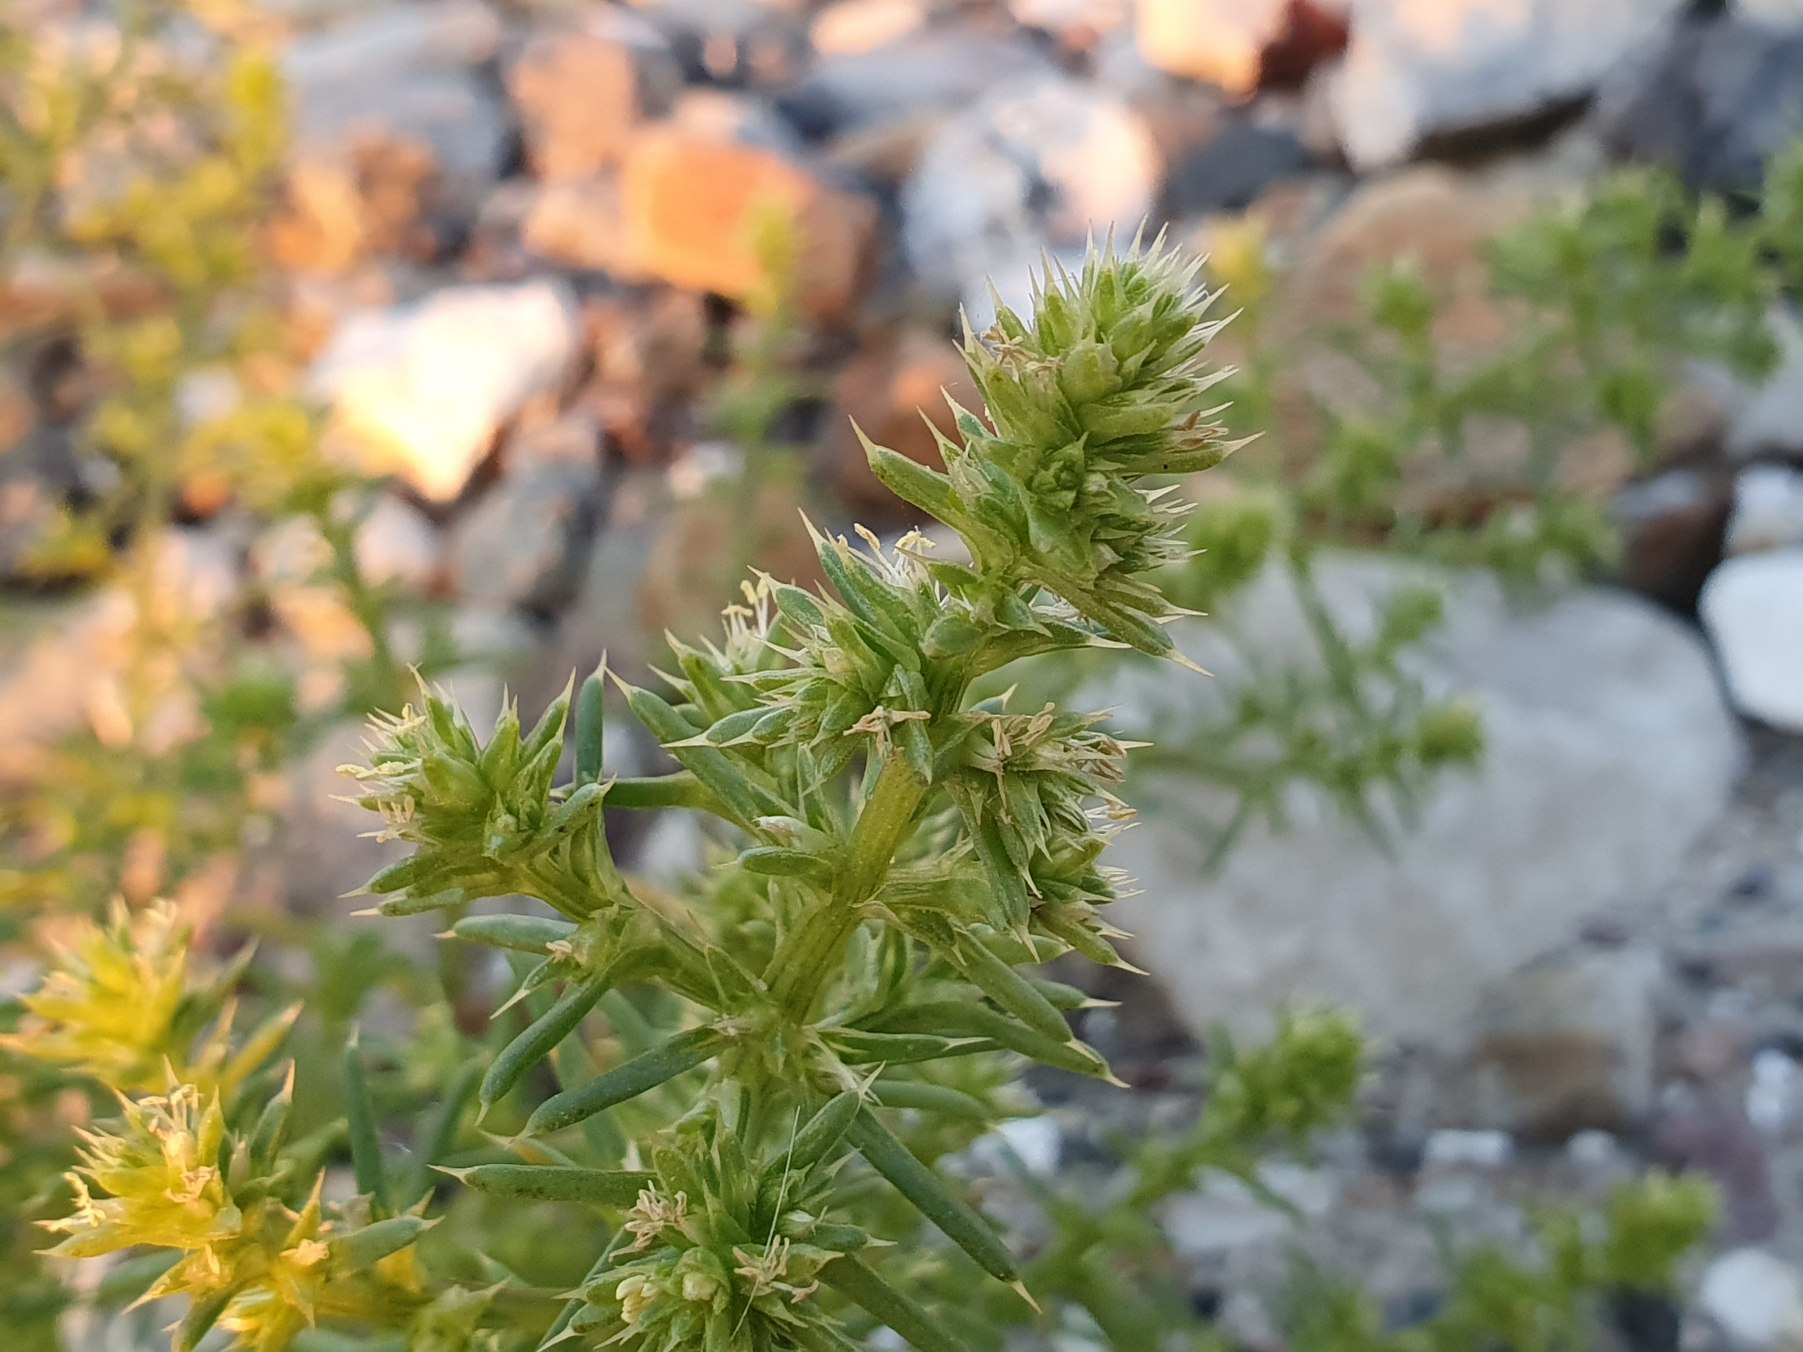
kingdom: Plantae
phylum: Tracheophyta
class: Magnoliopsida
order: Caryophyllales
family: Amaranthaceae
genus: Salsola
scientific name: Salsola kali
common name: Sodaurt
